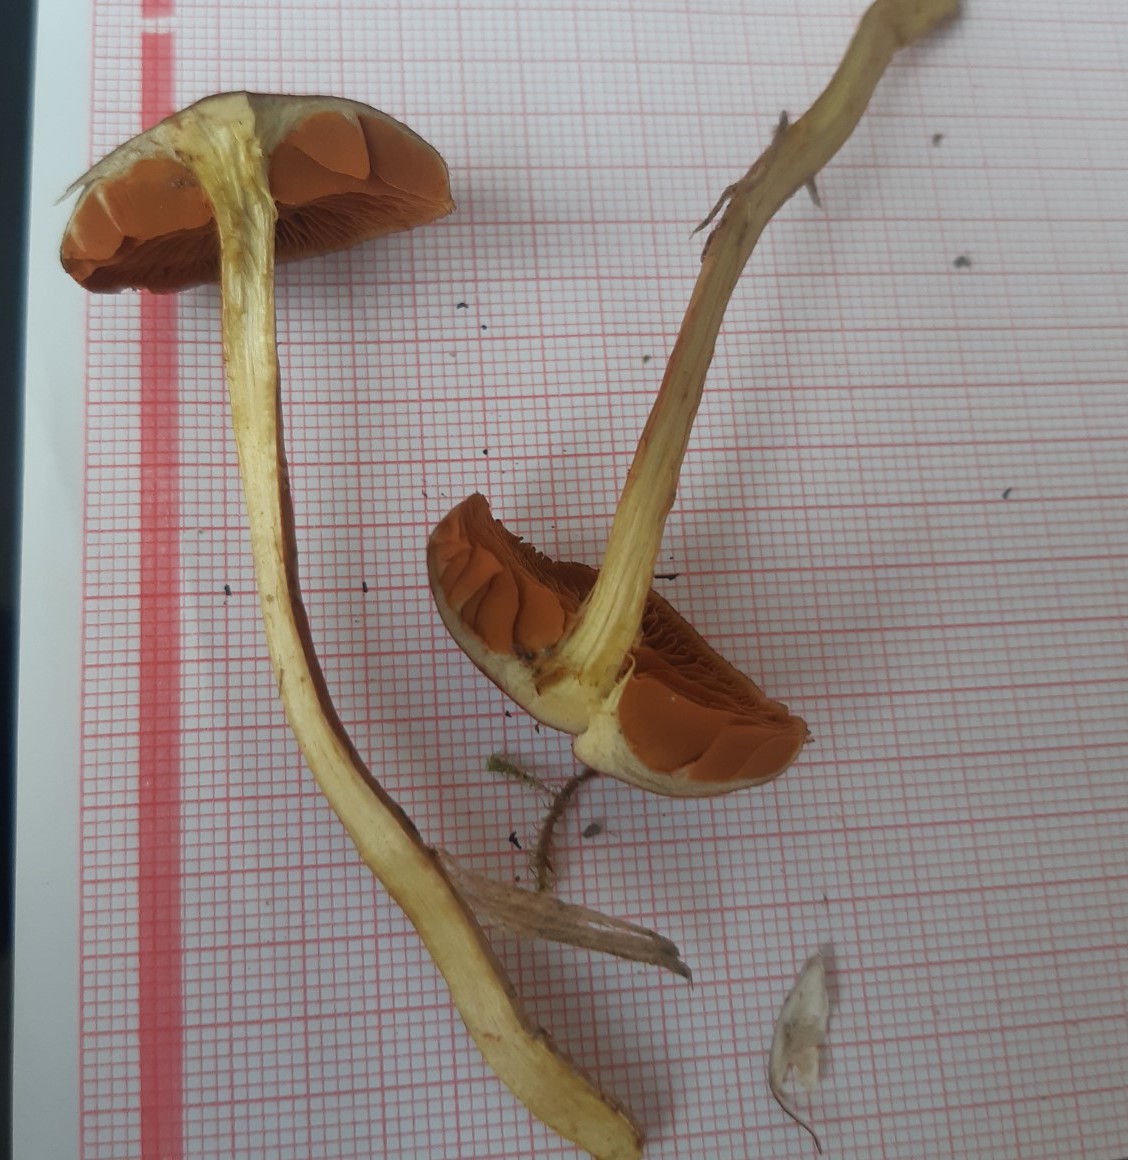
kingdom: Fungi
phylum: Basidiomycota
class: Agaricomycetes
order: Agaricales
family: Cortinariaceae
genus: Cortinarius
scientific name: Cortinarius cinnamomeus
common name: kanel-slørhat
